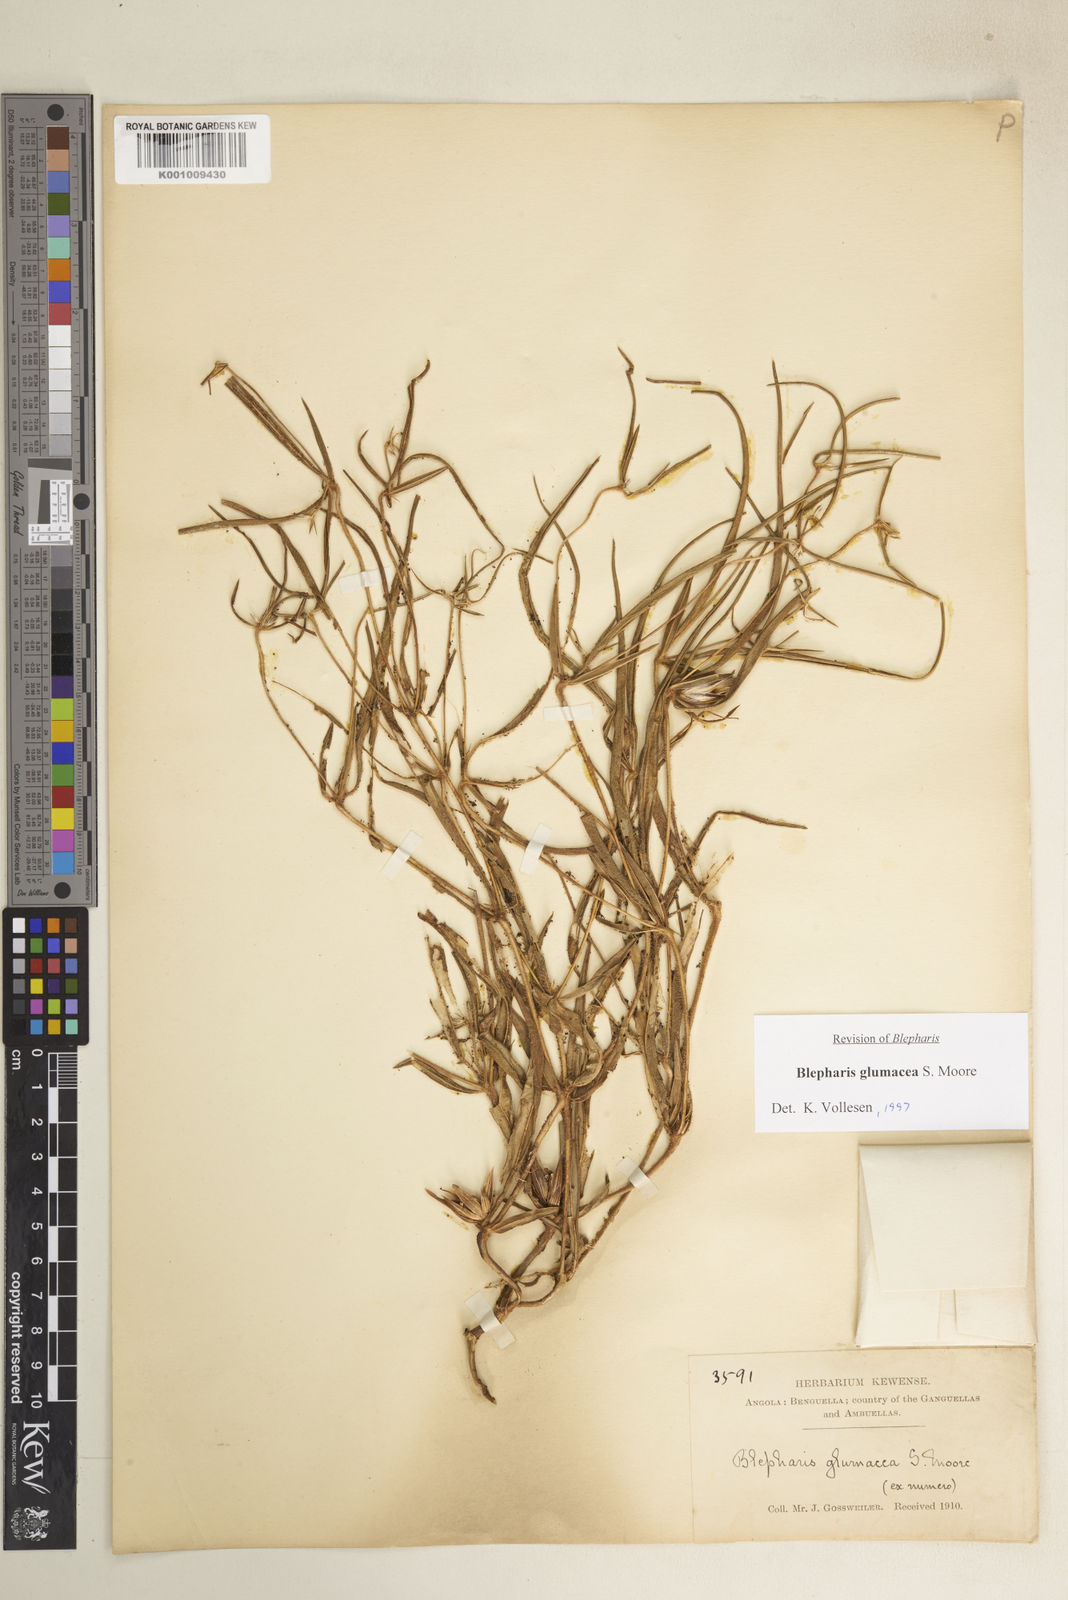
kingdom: Plantae
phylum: Tracheophyta
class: Magnoliopsida
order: Lamiales
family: Acanthaceae
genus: Blepharis
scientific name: Blepharis glumacea
